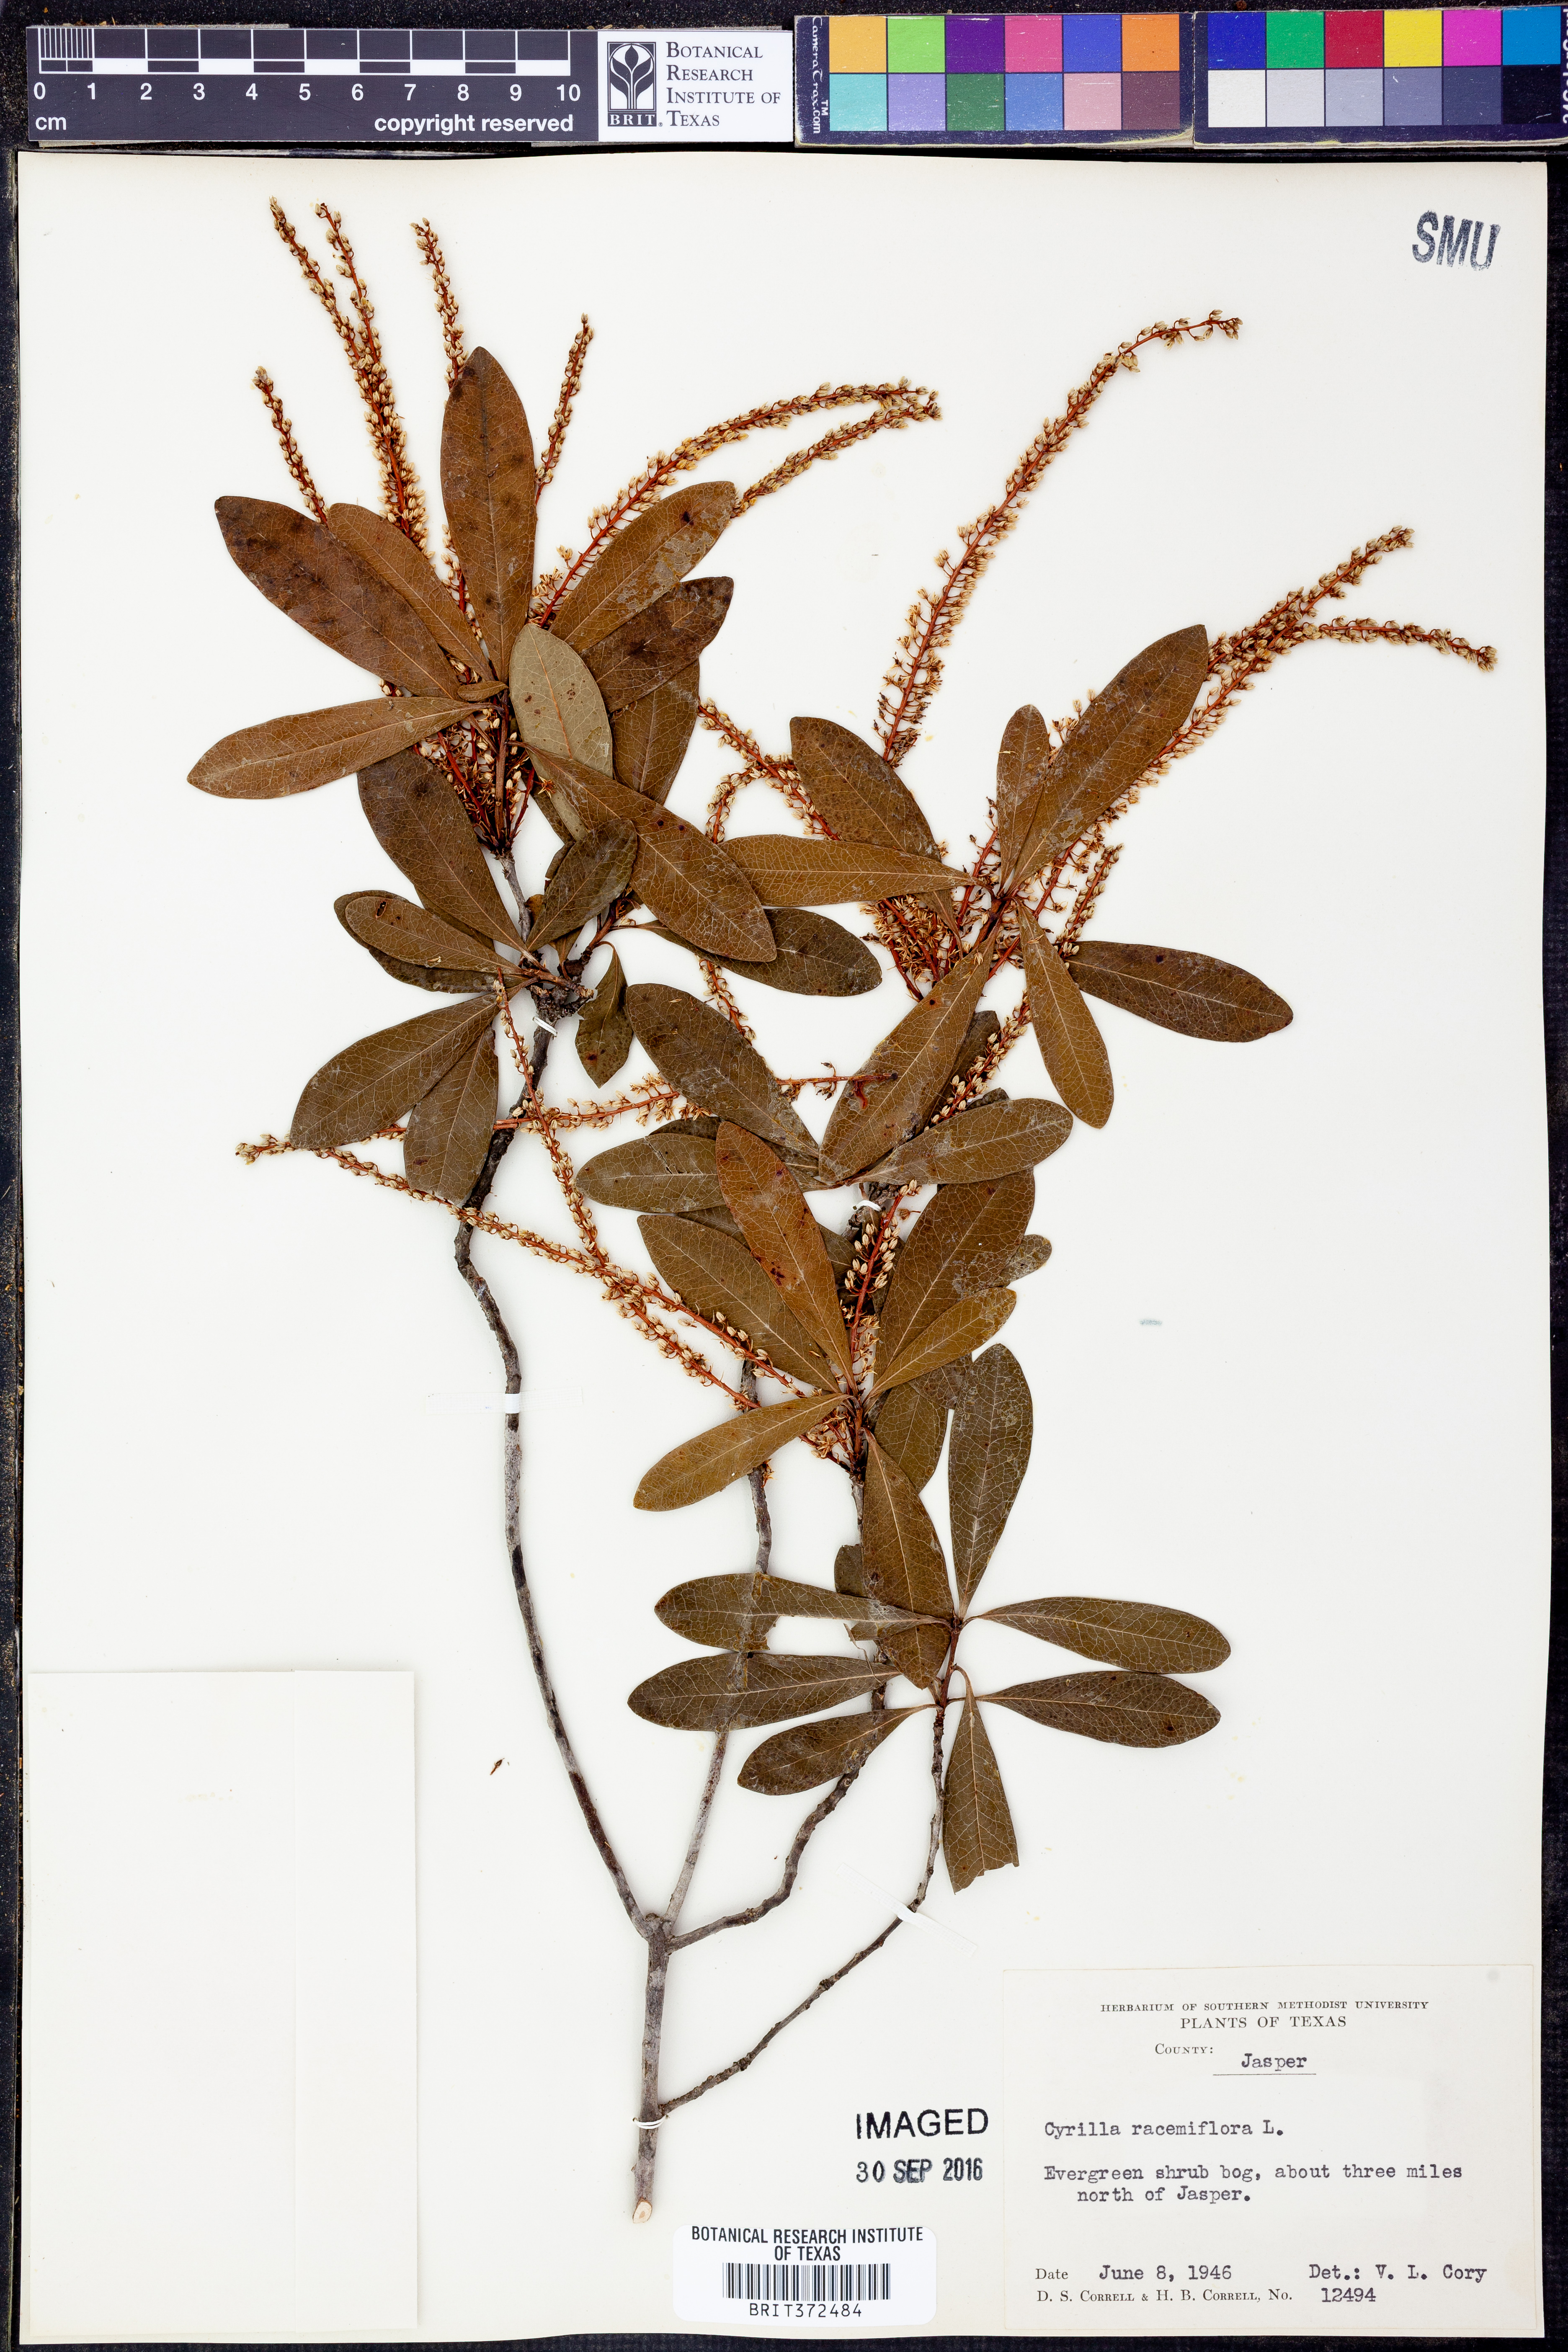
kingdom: Plantae
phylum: Tracheophyta
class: Magnoliopsida
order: Ericales
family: Cyrillaceae
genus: Cyrilla
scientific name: Cyrilla racemiflora
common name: Black titi
